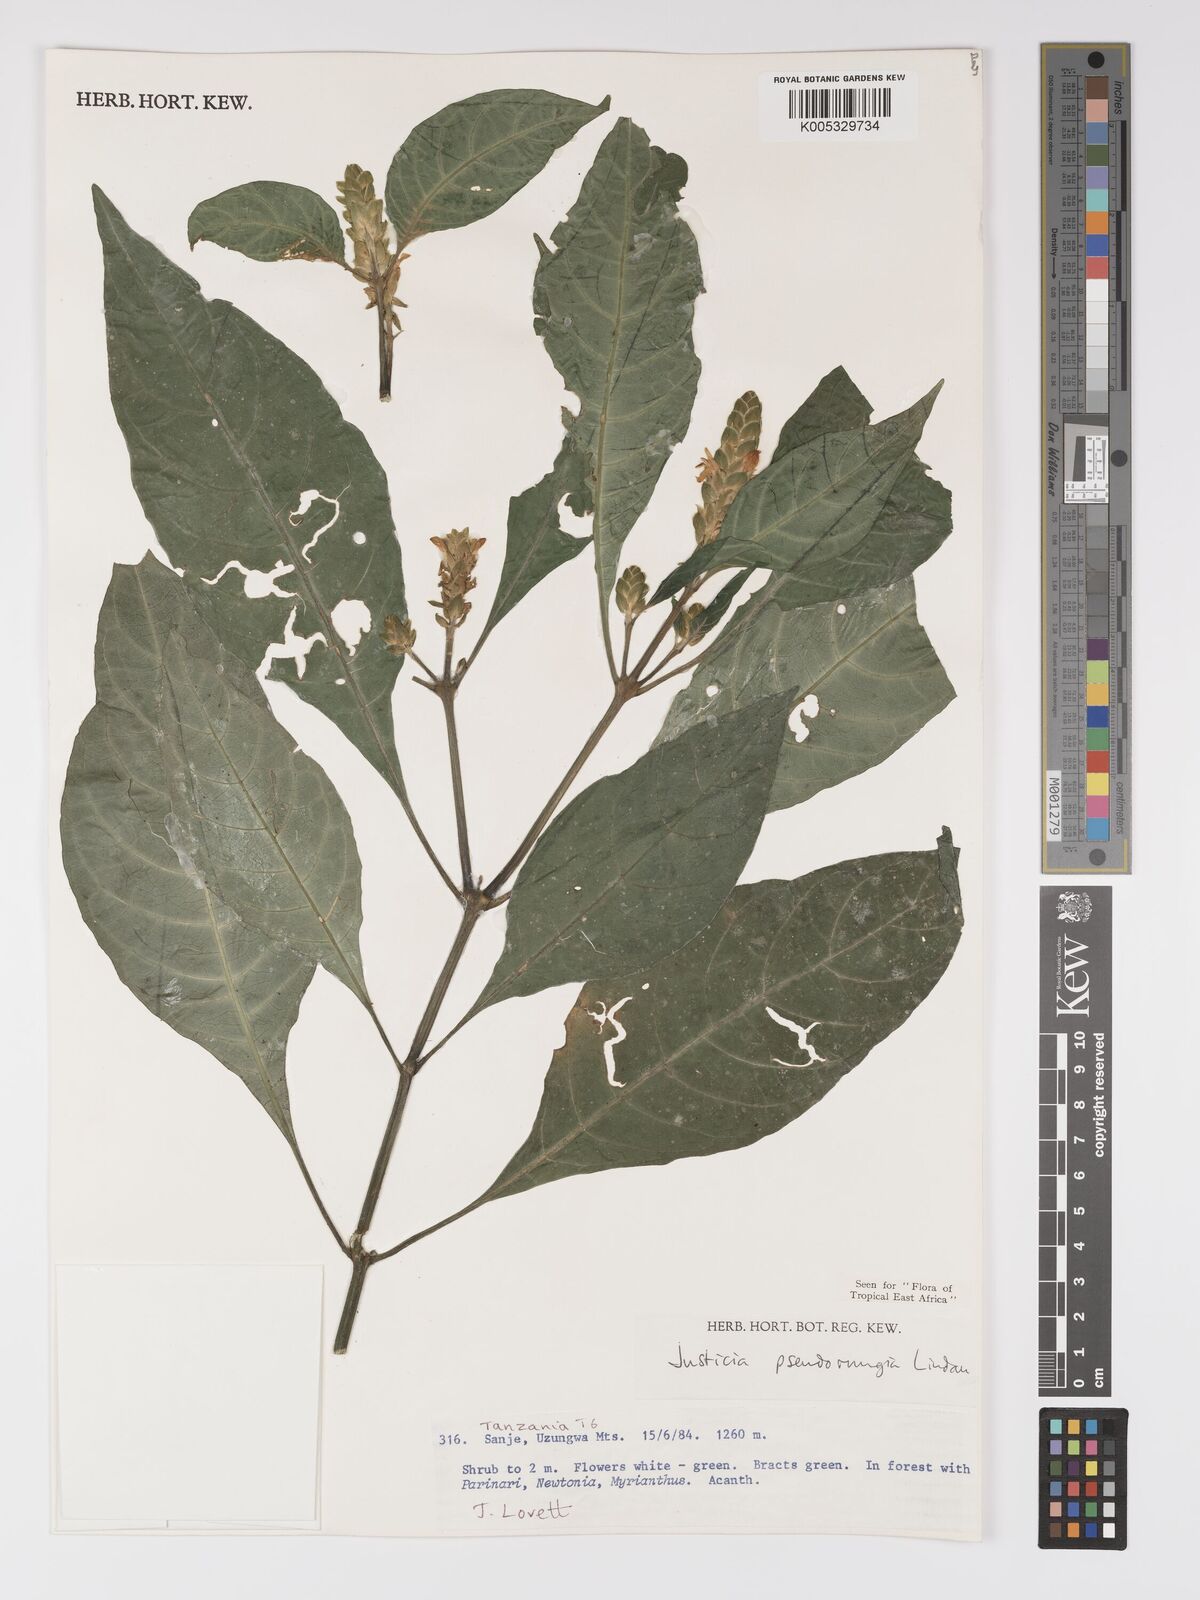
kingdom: Plantae
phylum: Tracheophyta
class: Magnoliopsida
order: Lamiales
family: Acanthaceae
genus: Justicia
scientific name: Justicia pseudorungia
